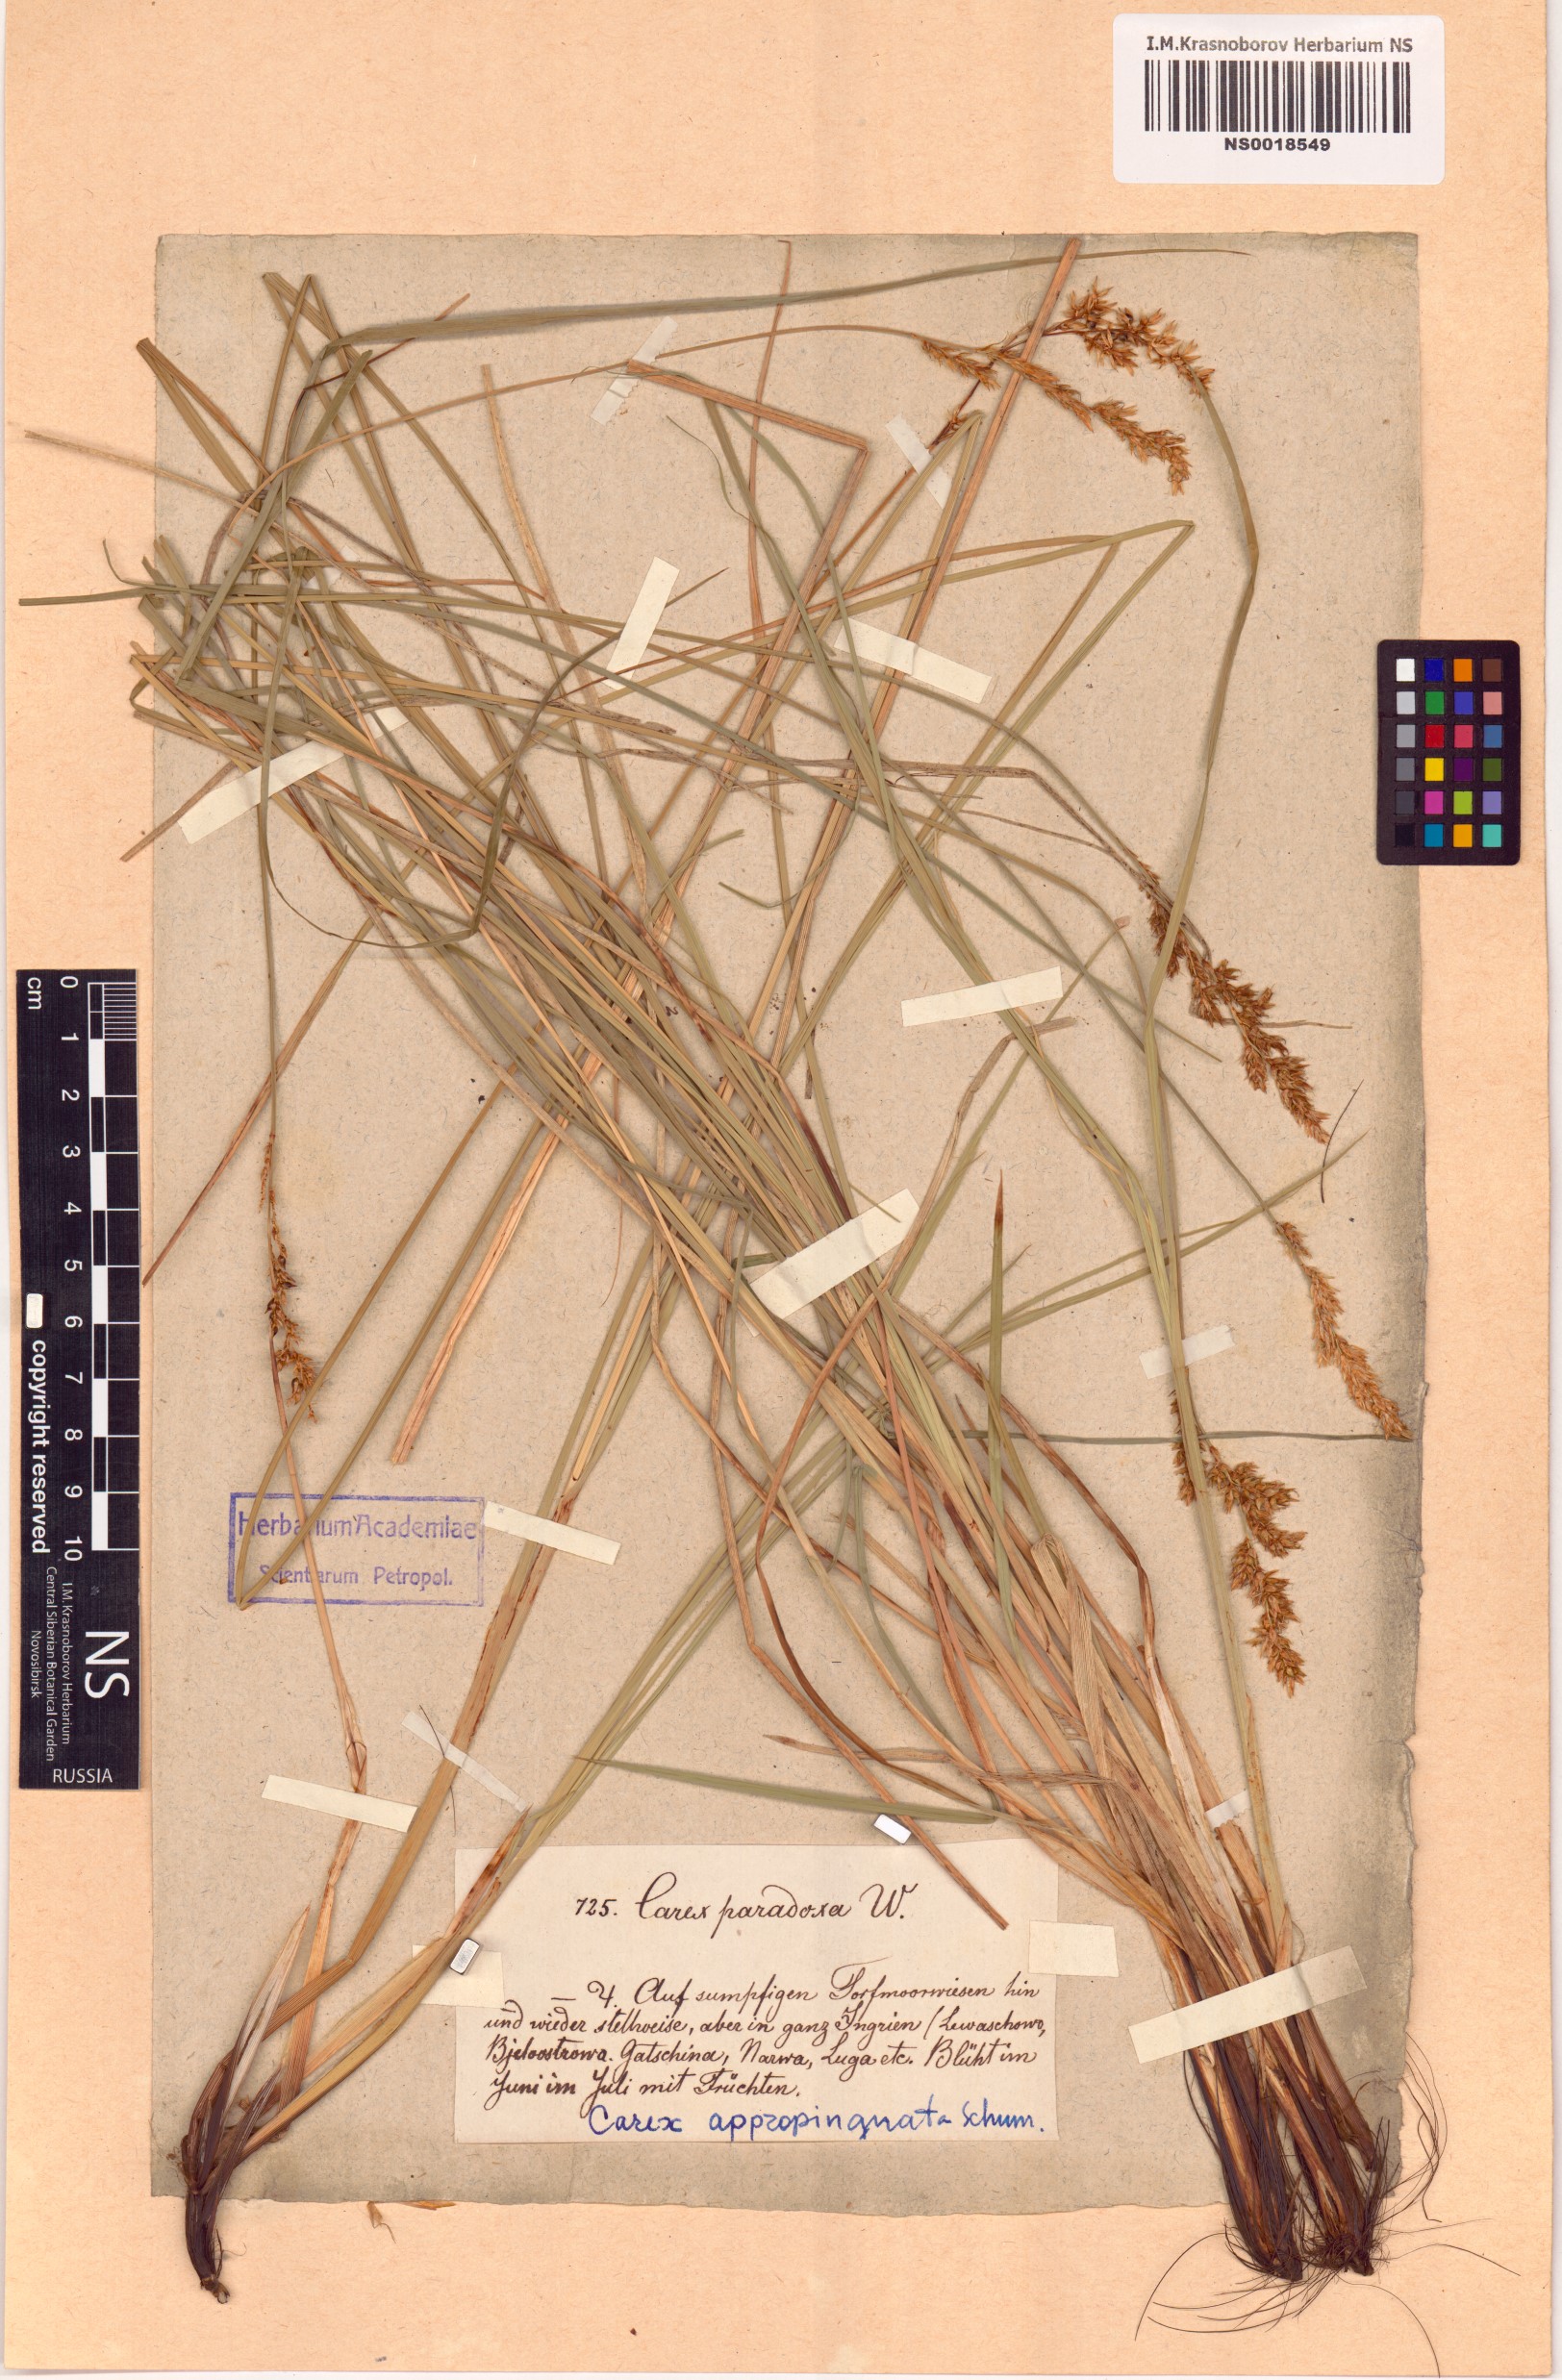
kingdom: Plantae
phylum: Tracheophyta
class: Liliopsida
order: Poales
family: Cyperaceae
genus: Carex
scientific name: Carex appropinquata
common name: Fibrous tussock-sedge
